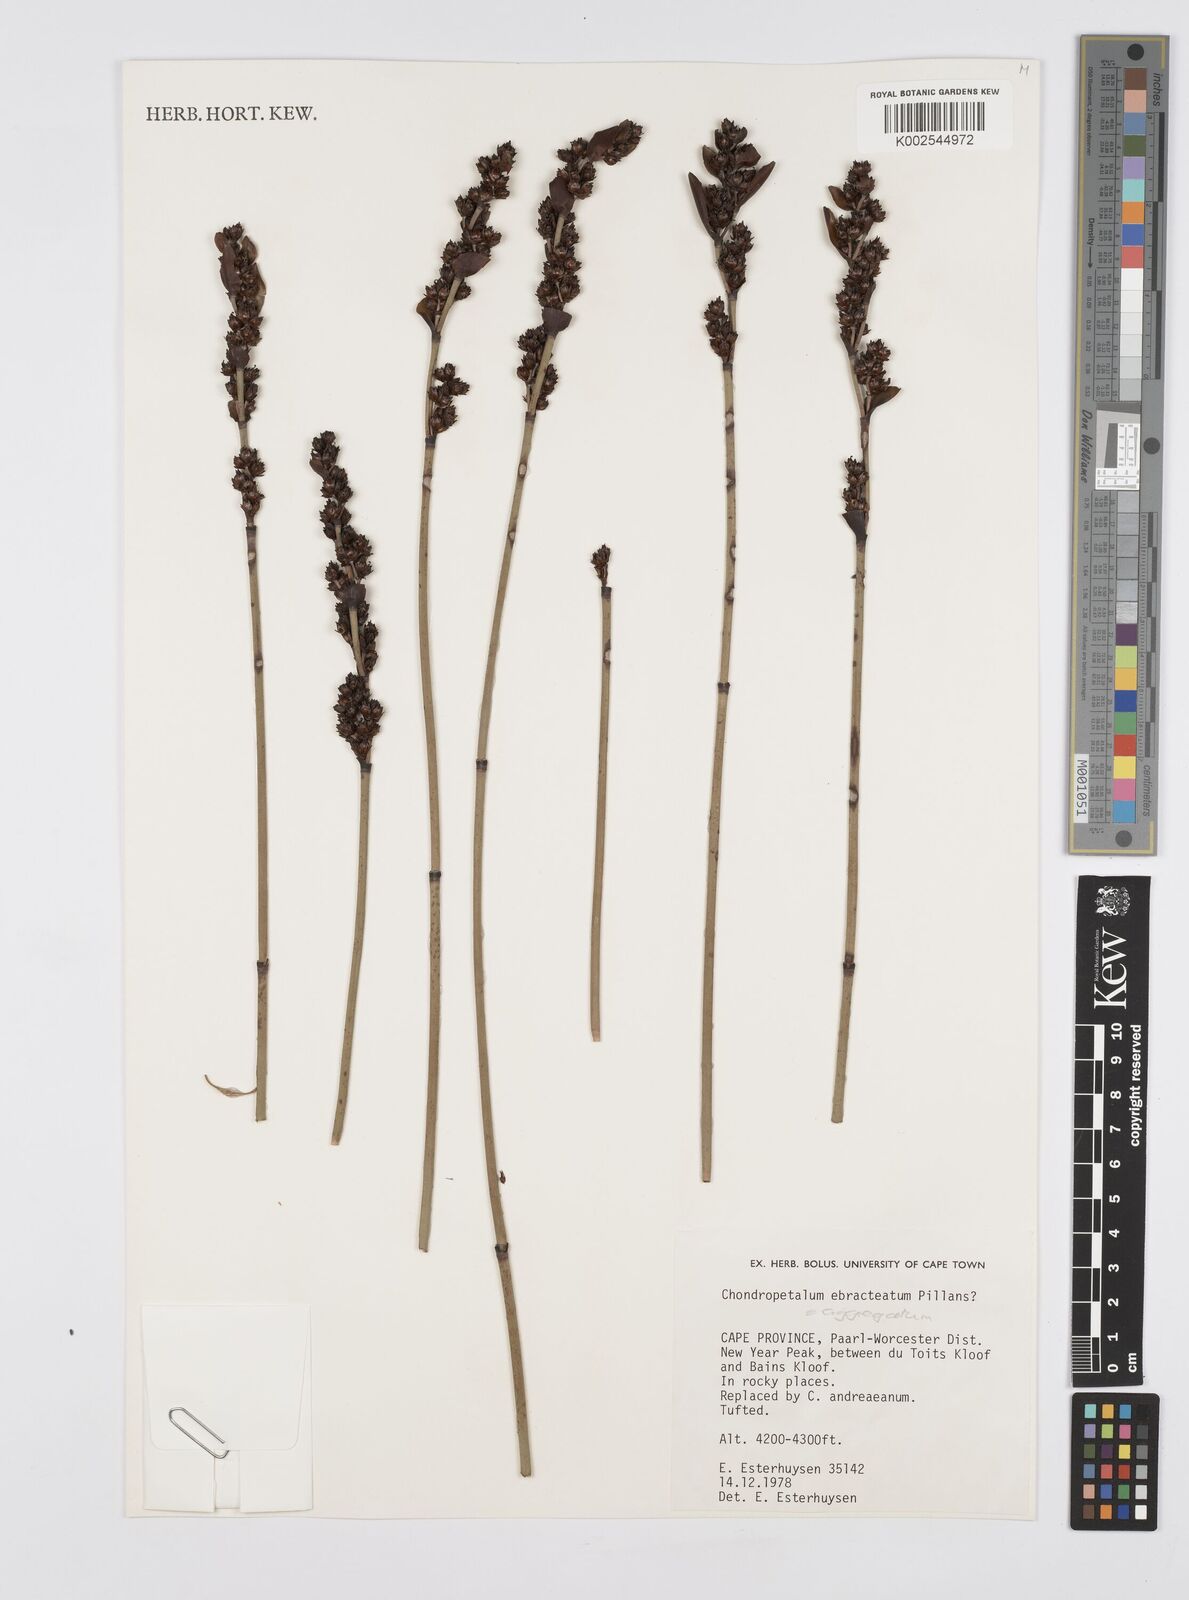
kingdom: Plantae
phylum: Tracheophyta
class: Liliopsida
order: Poales
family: Restionaceae
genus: Elegia
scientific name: Elegia aggregata
